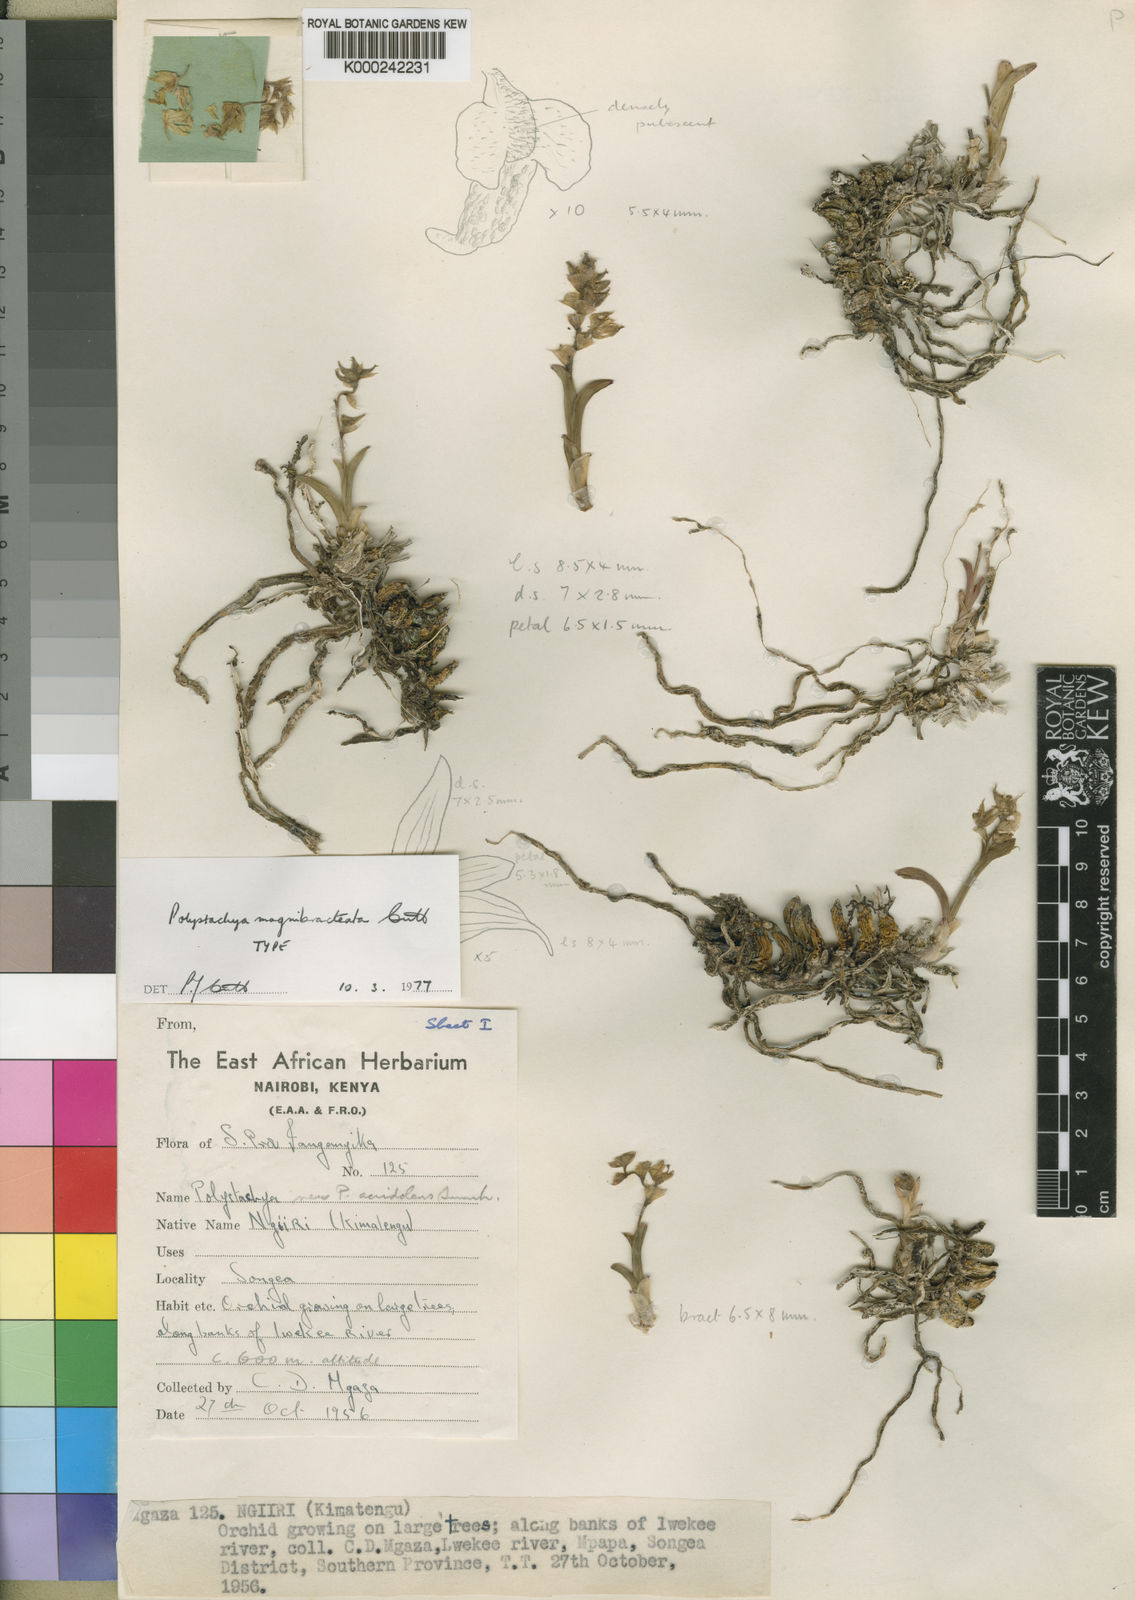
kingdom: Plantae
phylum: Tracheophyta
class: Liliopsida
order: Asparagales
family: Orchidaceae
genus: Polystachya
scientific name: Polystachya magnibracteata
